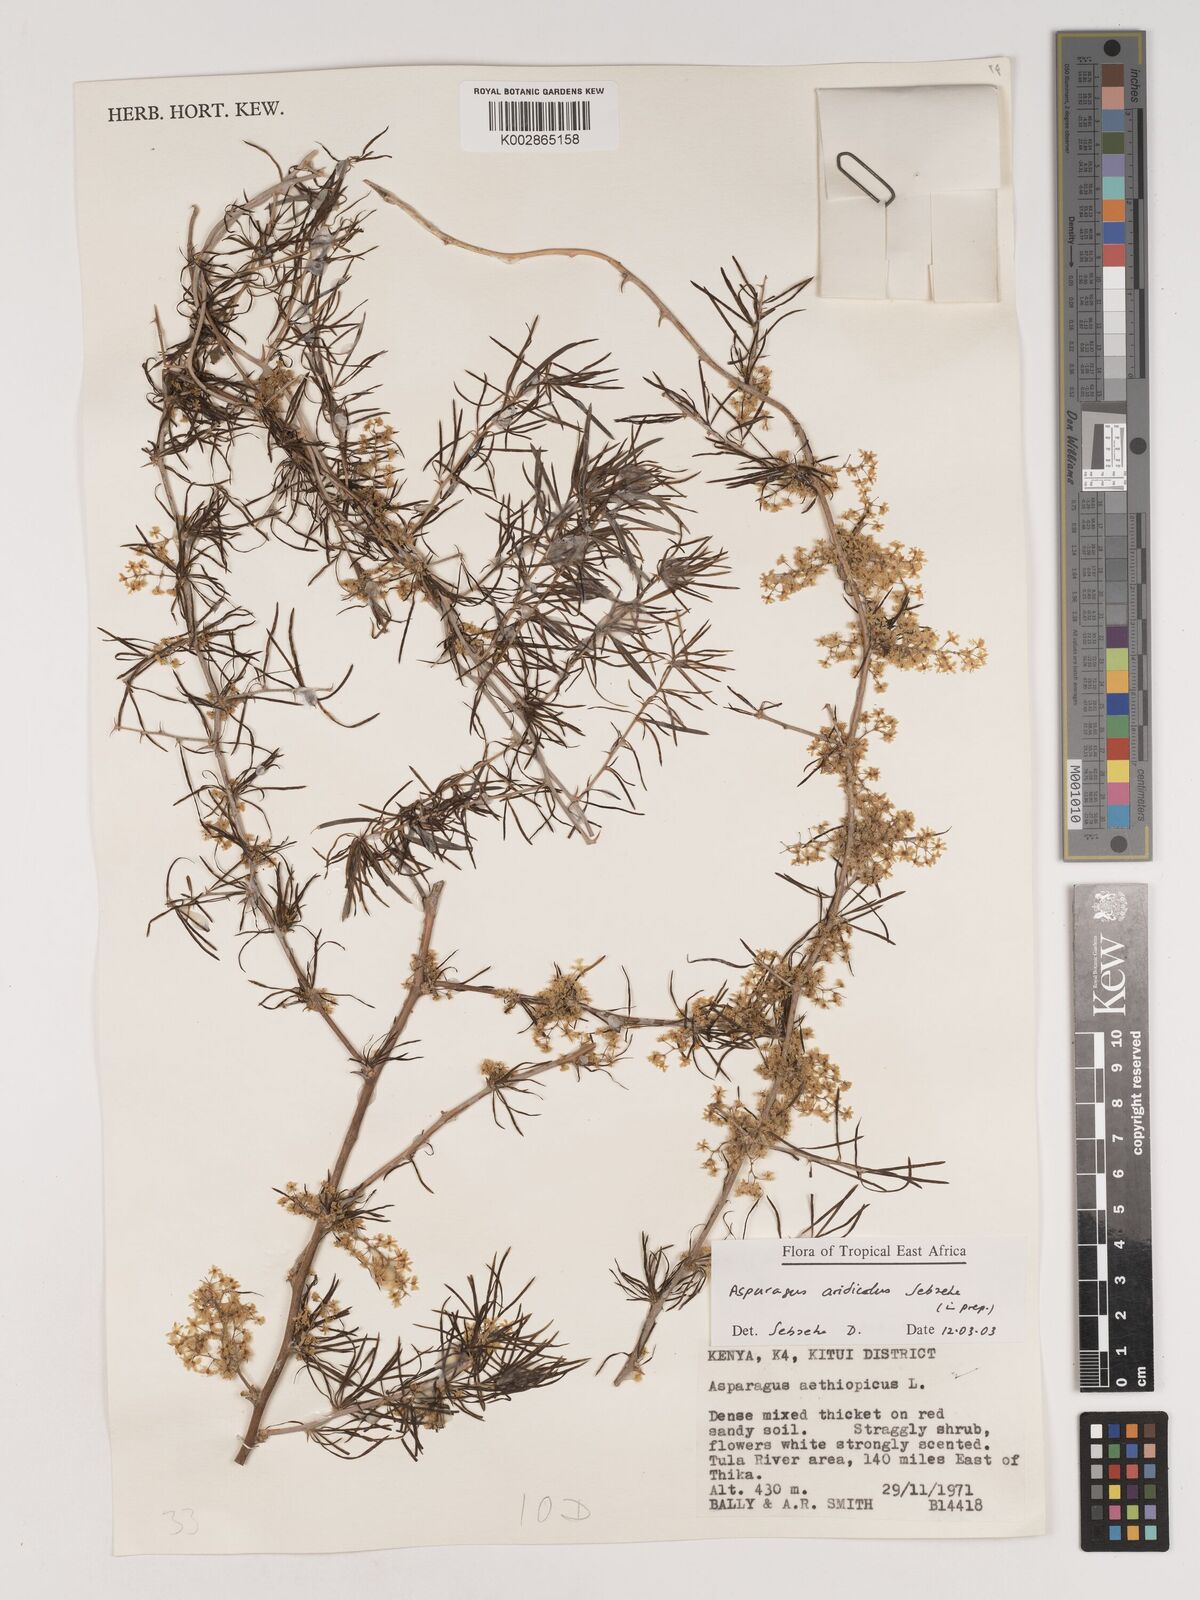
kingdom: Plantae
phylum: Tracheophyta
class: Liliopsida
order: Asparagales
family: Asparagaceae
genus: Asparagus
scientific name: Asparagus aridicola
